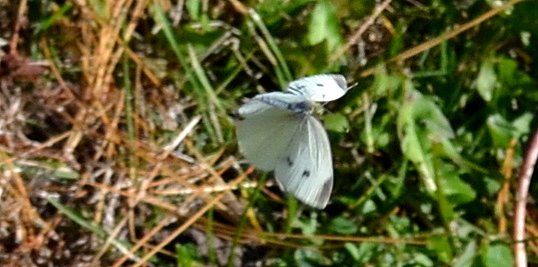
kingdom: Animalia
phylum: Arthropoda
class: Insecta
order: Lepidoptera
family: Pieridae
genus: Pieris
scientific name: Pieris rapae
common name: Cabbage White
